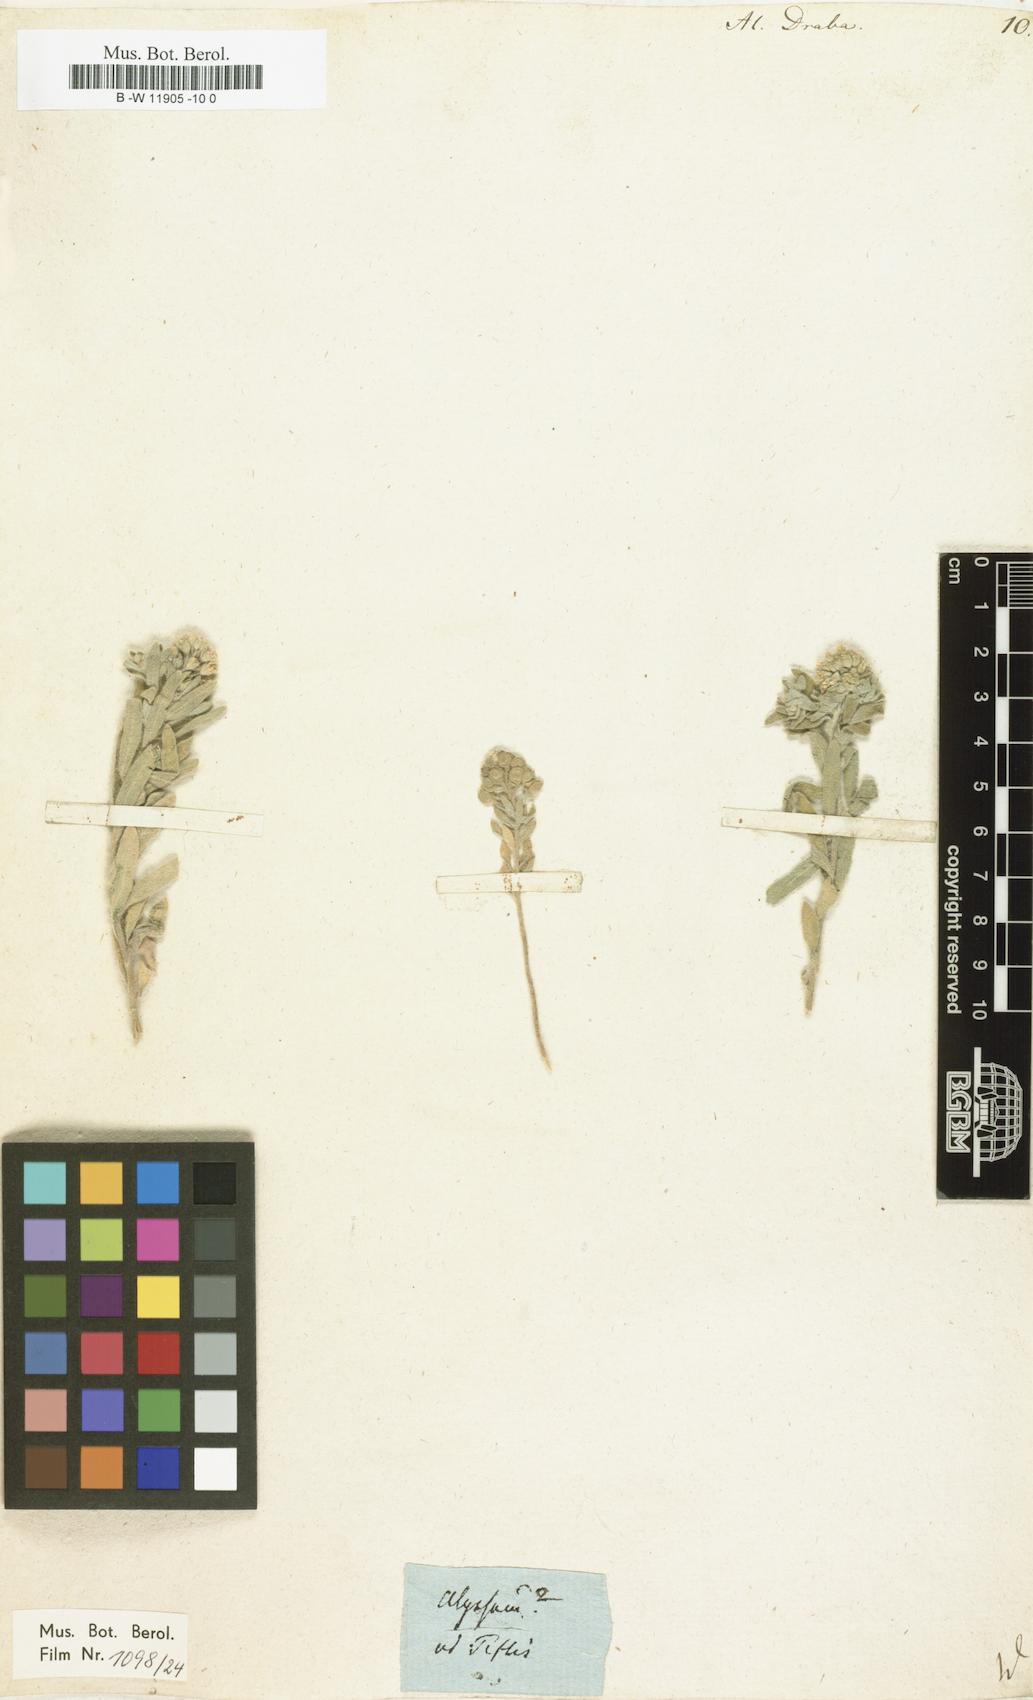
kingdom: Plantae
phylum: Tracheophyta
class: Magnoliopsida
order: Brassicales
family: Brassicaceae
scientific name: Brassicaceae
